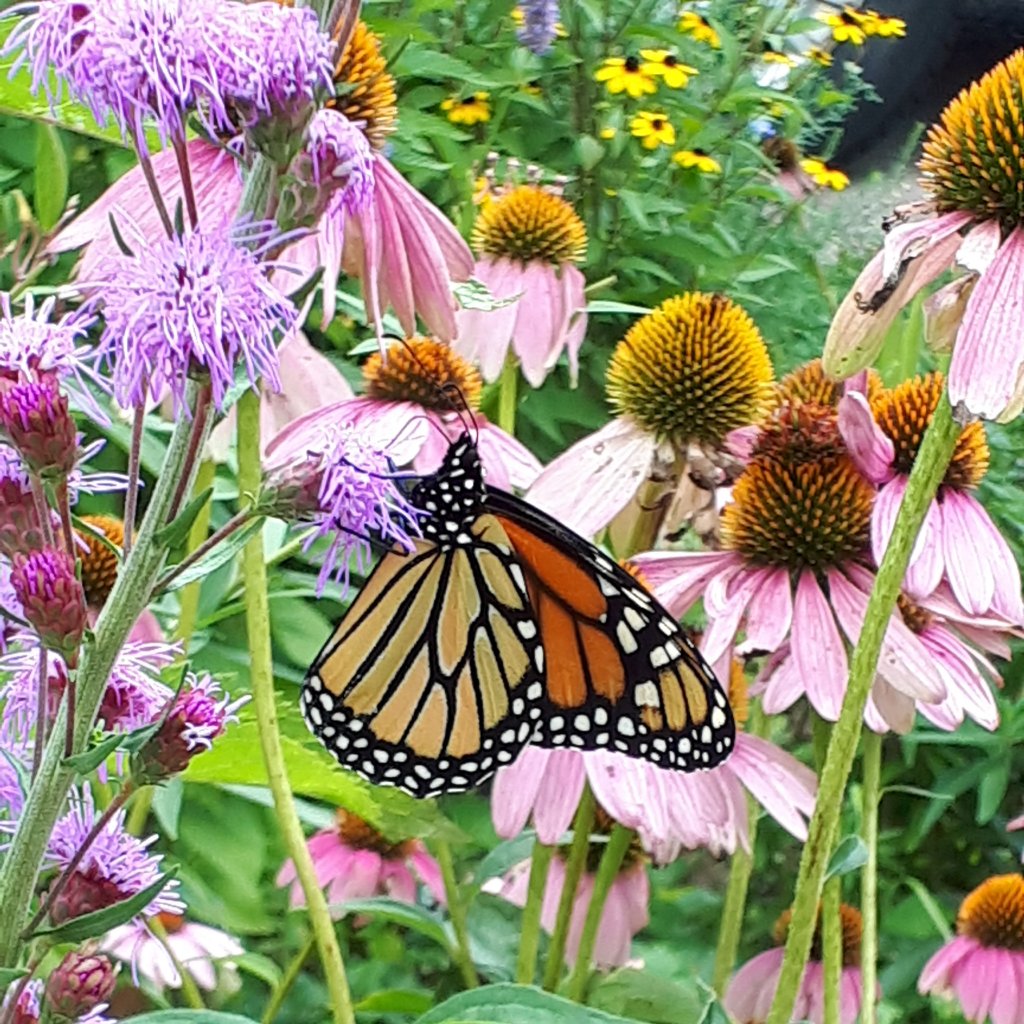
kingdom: Animalia
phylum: Arthropoda
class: Insecta
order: Lepidoptera
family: Nymphalidae
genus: Danaus
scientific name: Danaus plexippus
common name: Monarch
